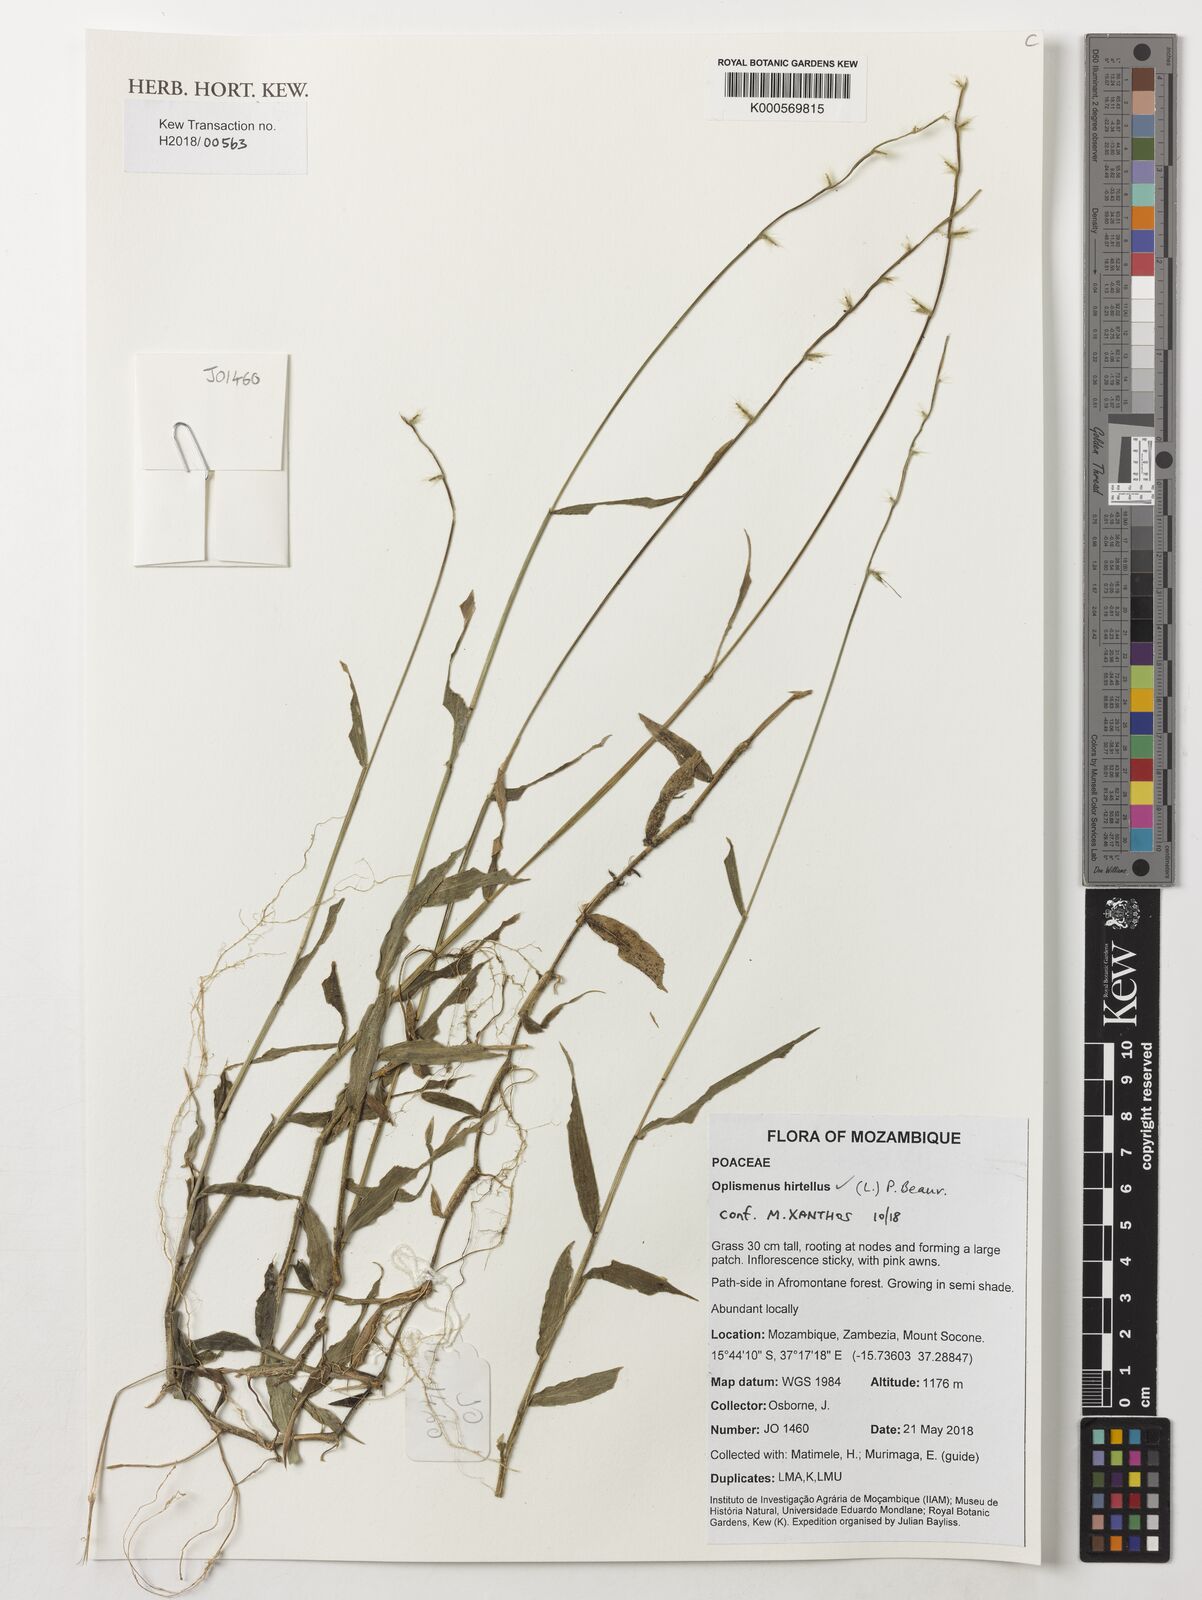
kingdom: Plantae
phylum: Tracheophyta
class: Liliopsida
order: Poales
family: Poaceae
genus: Oplismenus
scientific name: Oplismenus hirtellus
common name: Basketgrass
